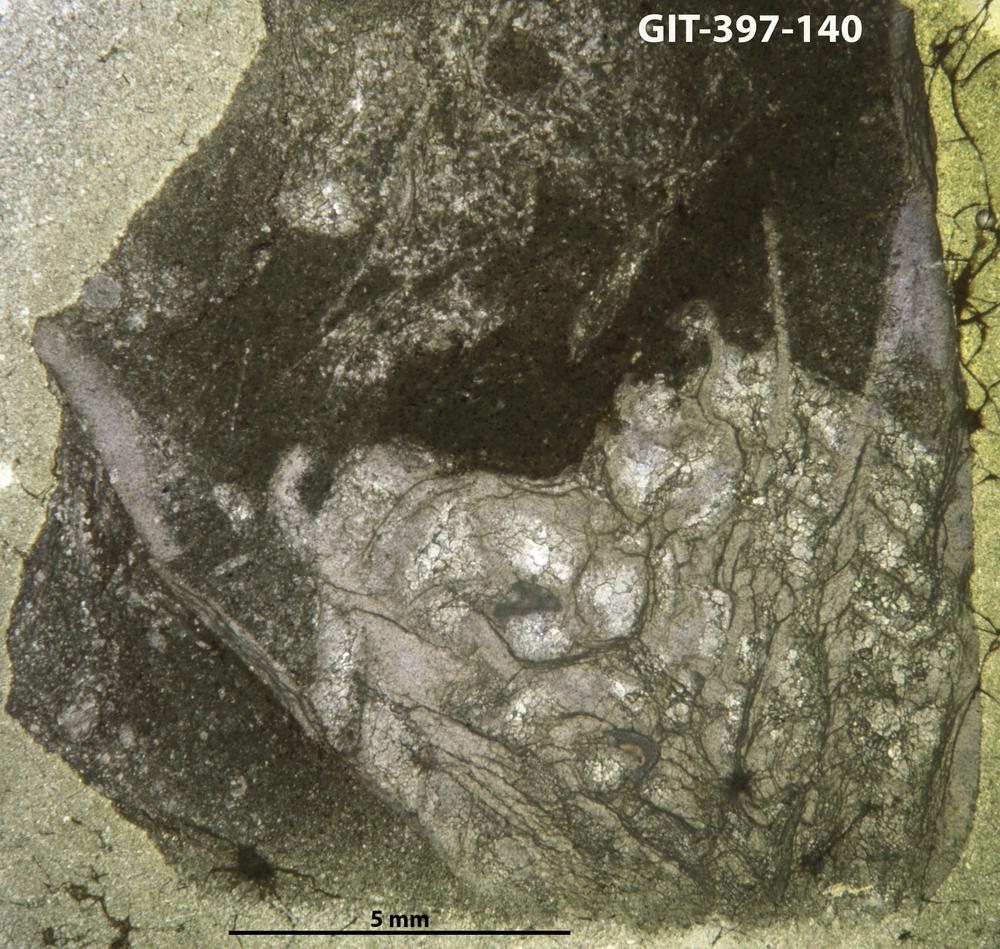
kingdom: Animalia
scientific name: Animalia
